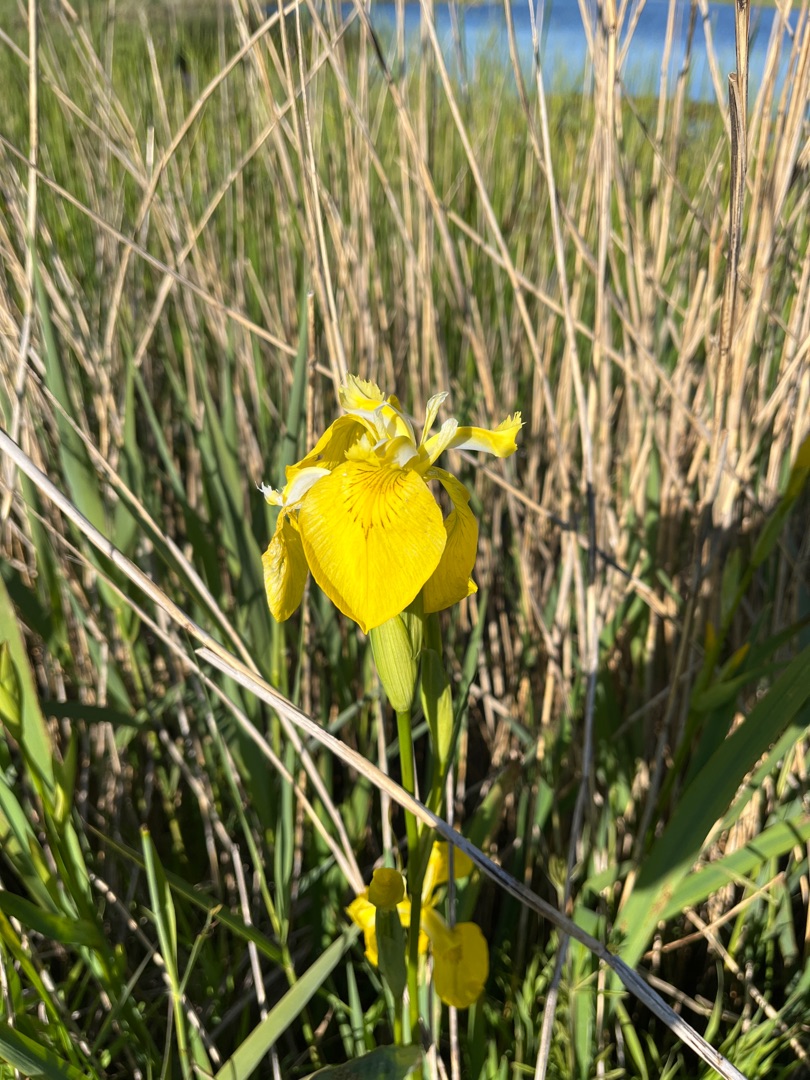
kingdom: Plantae
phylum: Tracheophyta
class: Liliopsida
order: Asparagales
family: Iridaceae
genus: Iris
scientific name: Iris pseudacorus
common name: Gul iris
